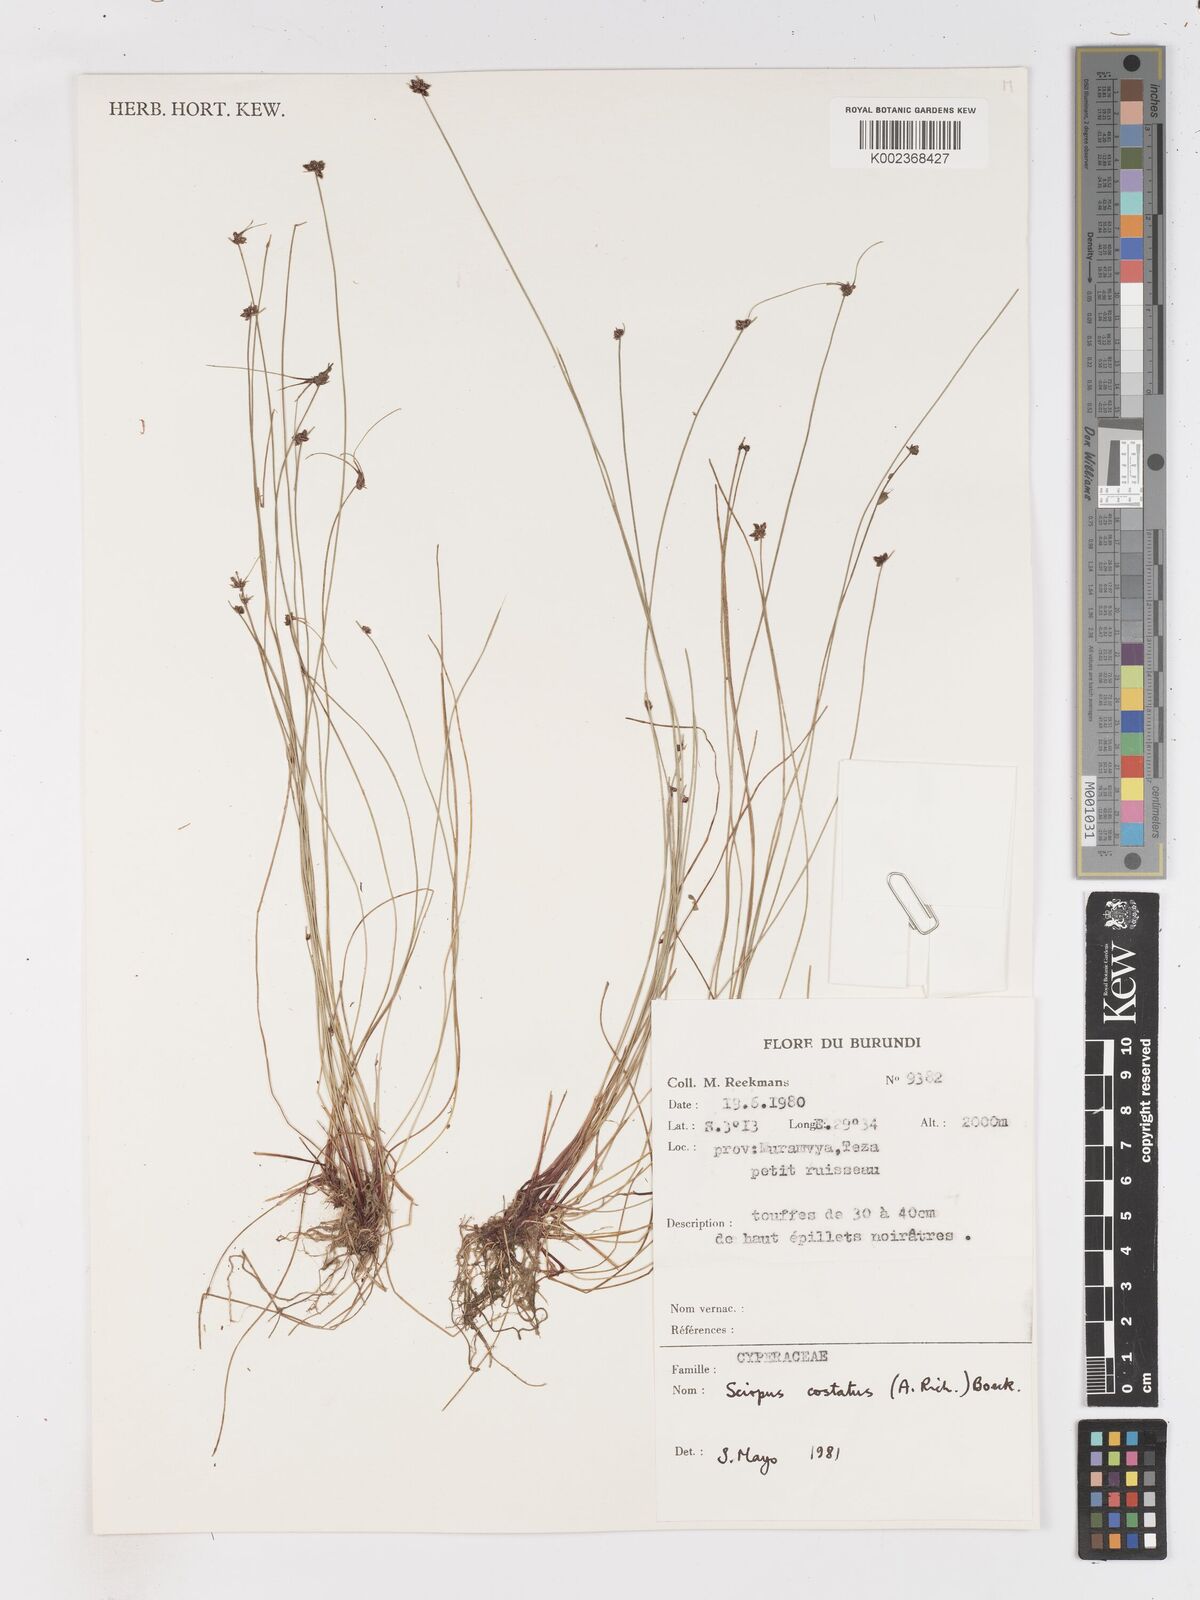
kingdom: Plantae
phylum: Tracheophyta
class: Liliopsida
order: Poales
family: Cyperaceae
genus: Isolepis
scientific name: Isolepis costata
